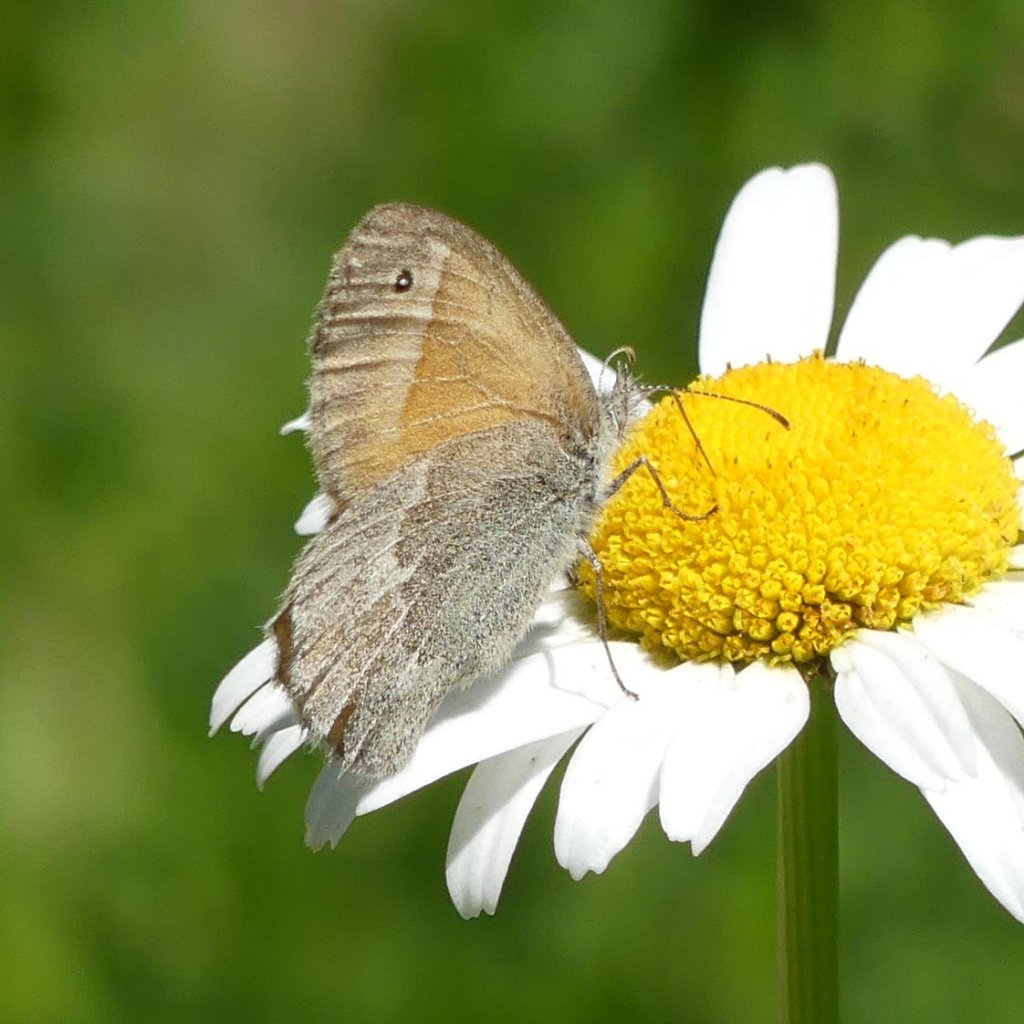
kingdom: Animalia
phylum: Arthropoda
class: Insecta
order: Lepidoptera
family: Nymphalidae
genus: Coenonympha
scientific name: Coenonympha tullia
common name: Large Heath
